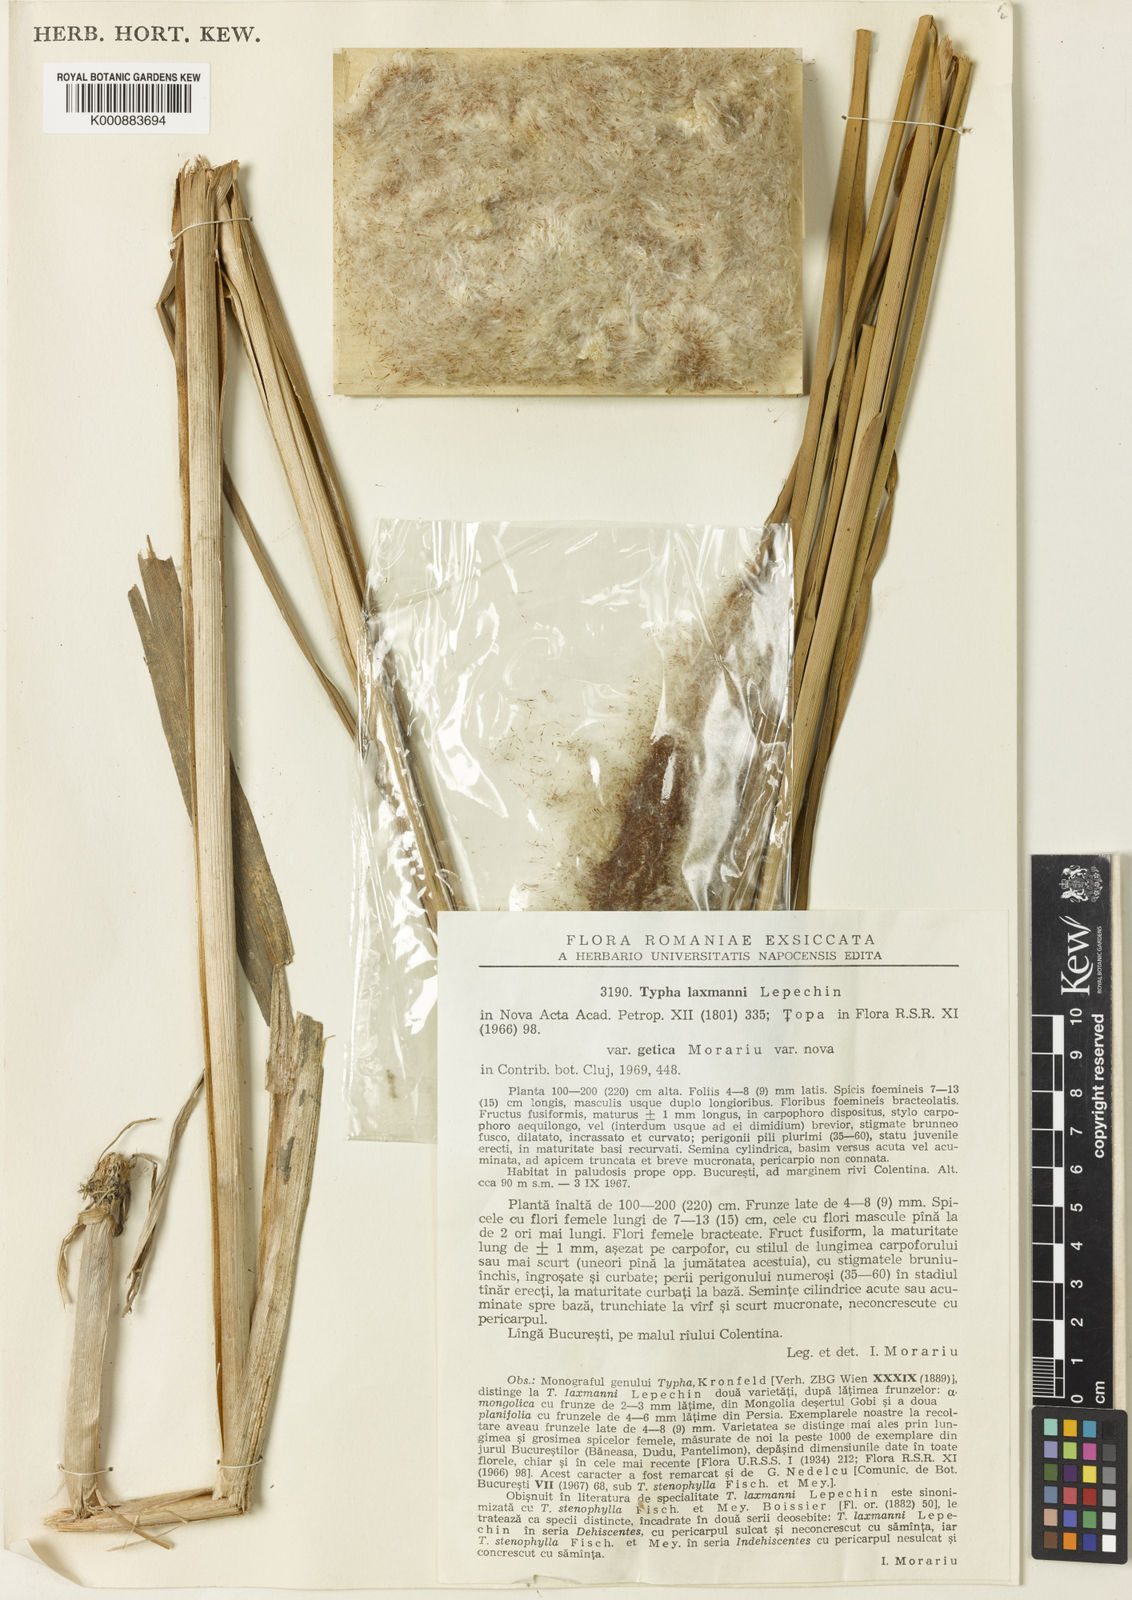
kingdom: Plantae
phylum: Tracheophyta
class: Liliopsida
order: Poales
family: Typhaceae
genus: Typha
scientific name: Typha laxmannii
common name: Laxman’s bulrush
